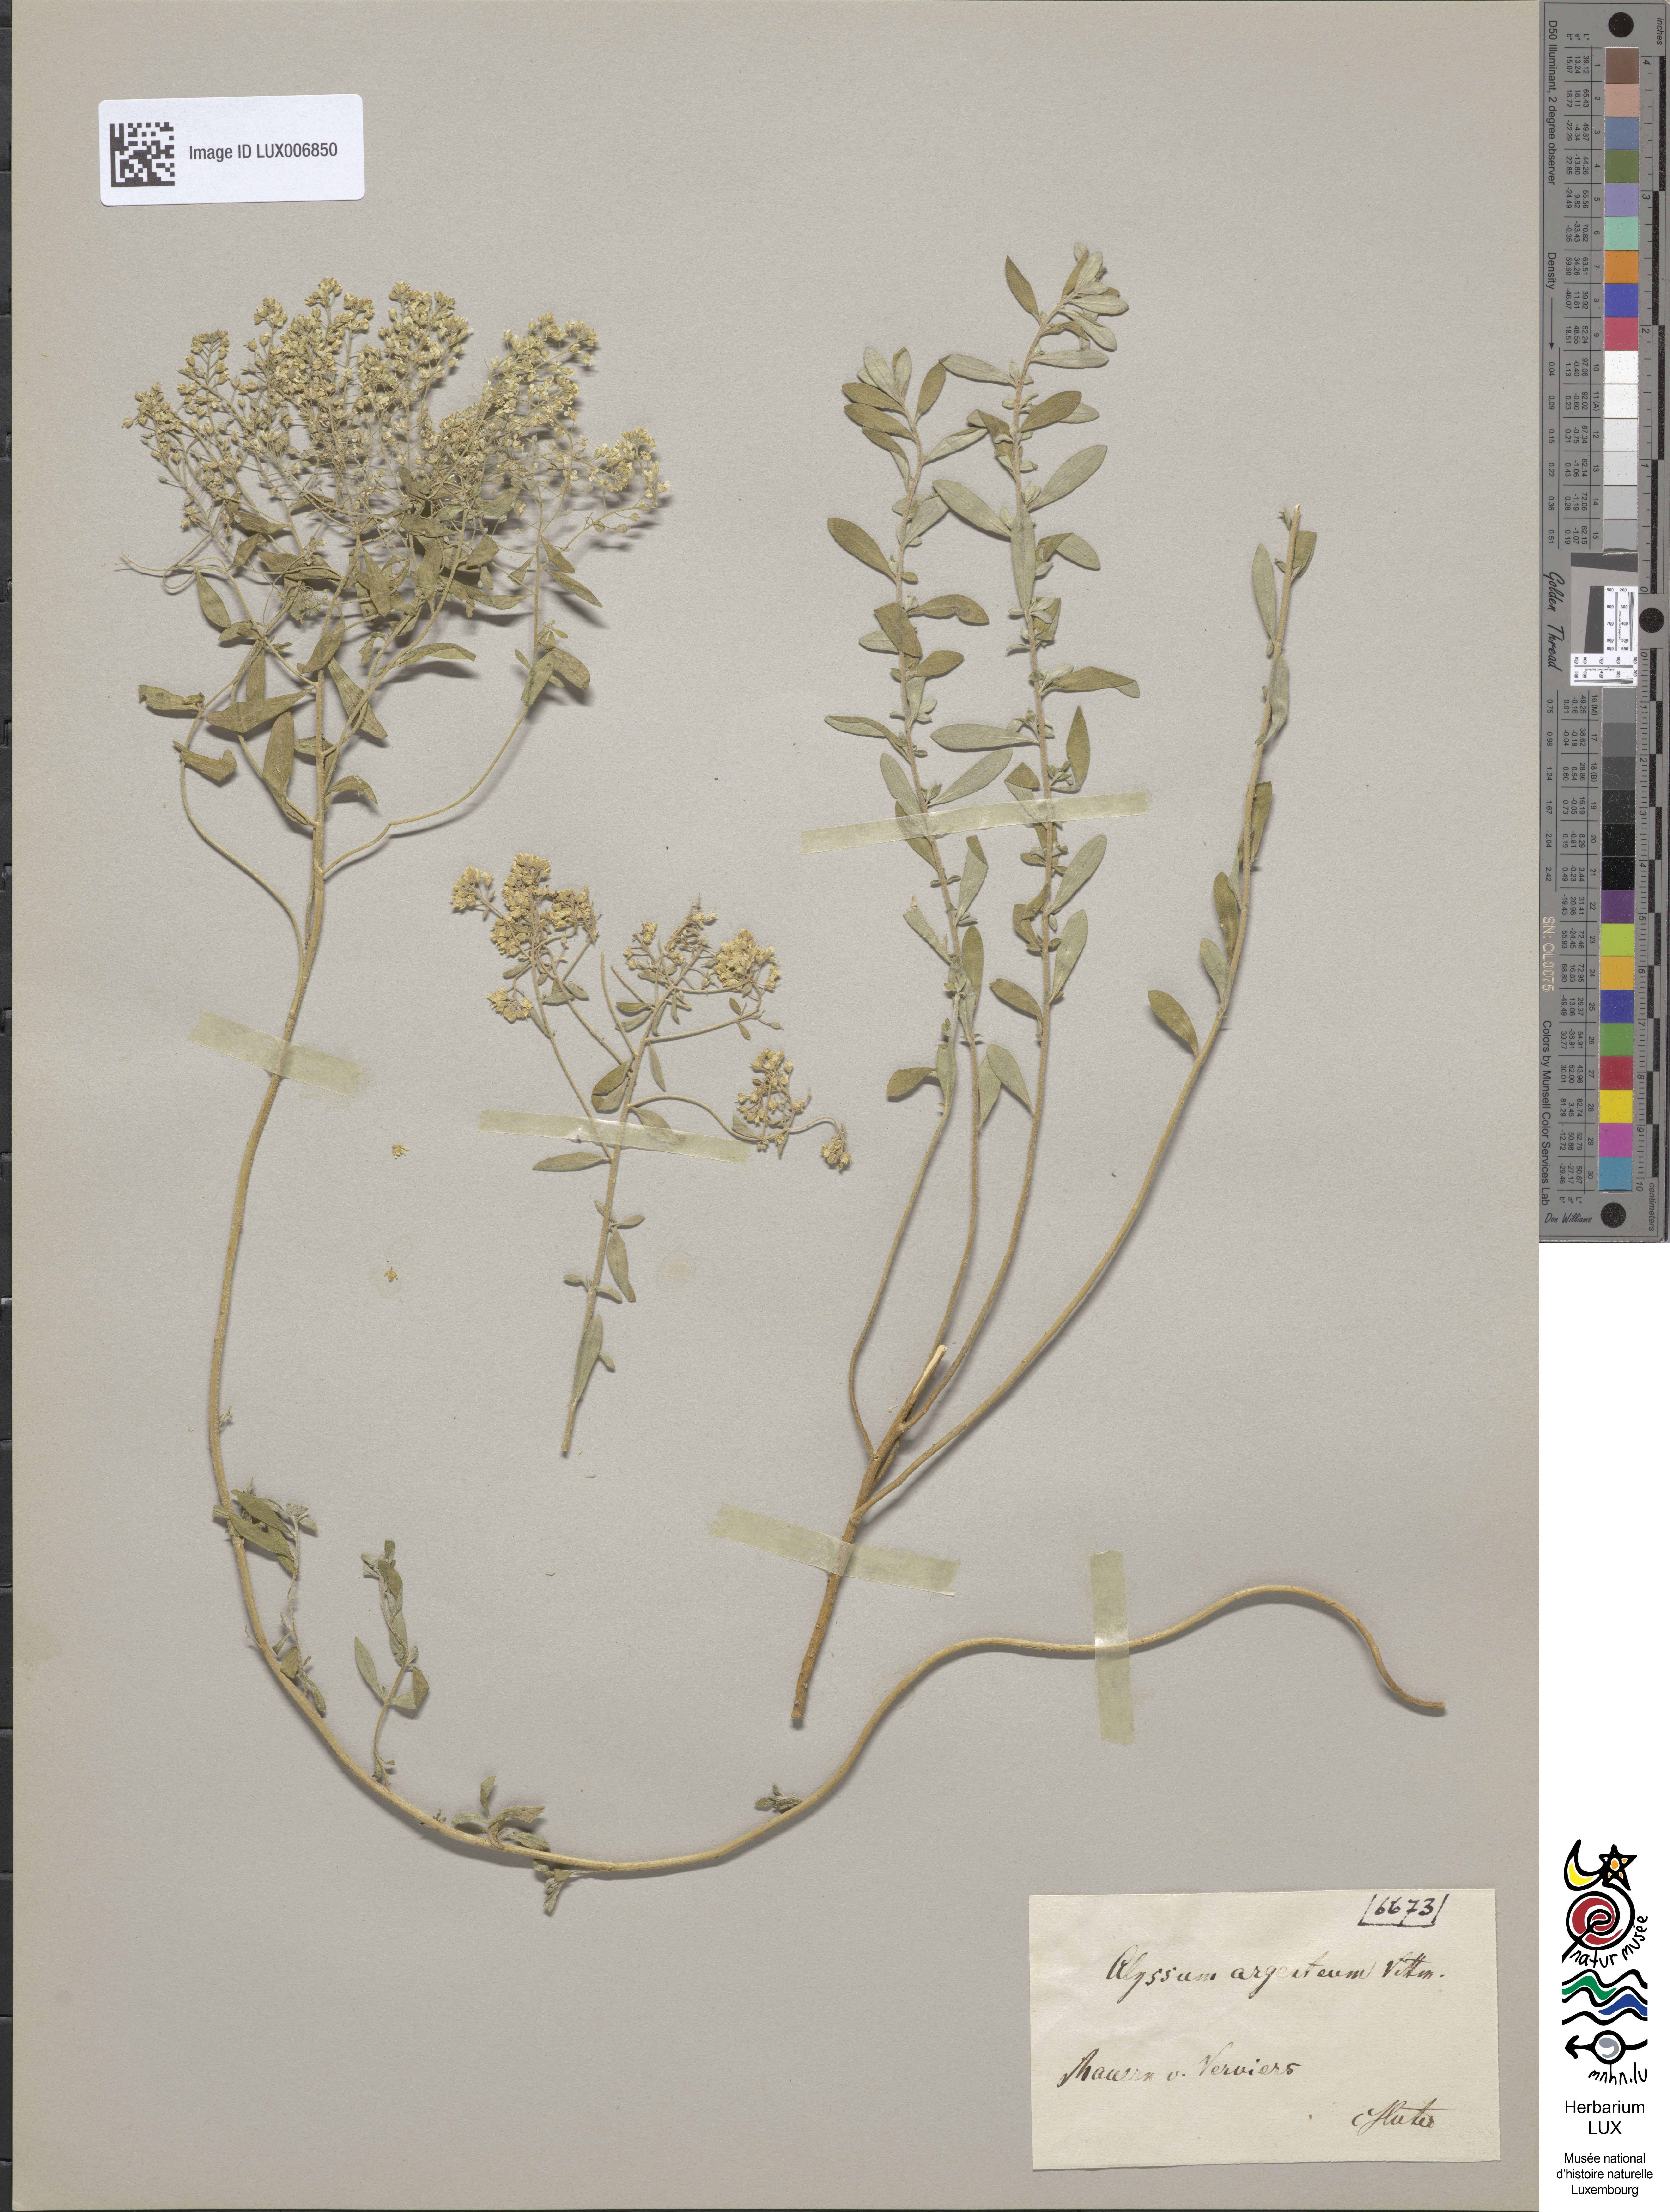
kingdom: Plantae
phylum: Tracheophyta
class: Magnoliopsida
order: Brassicales
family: Brassicaceae
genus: Odontarrhena
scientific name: Odontarrhena argentea
